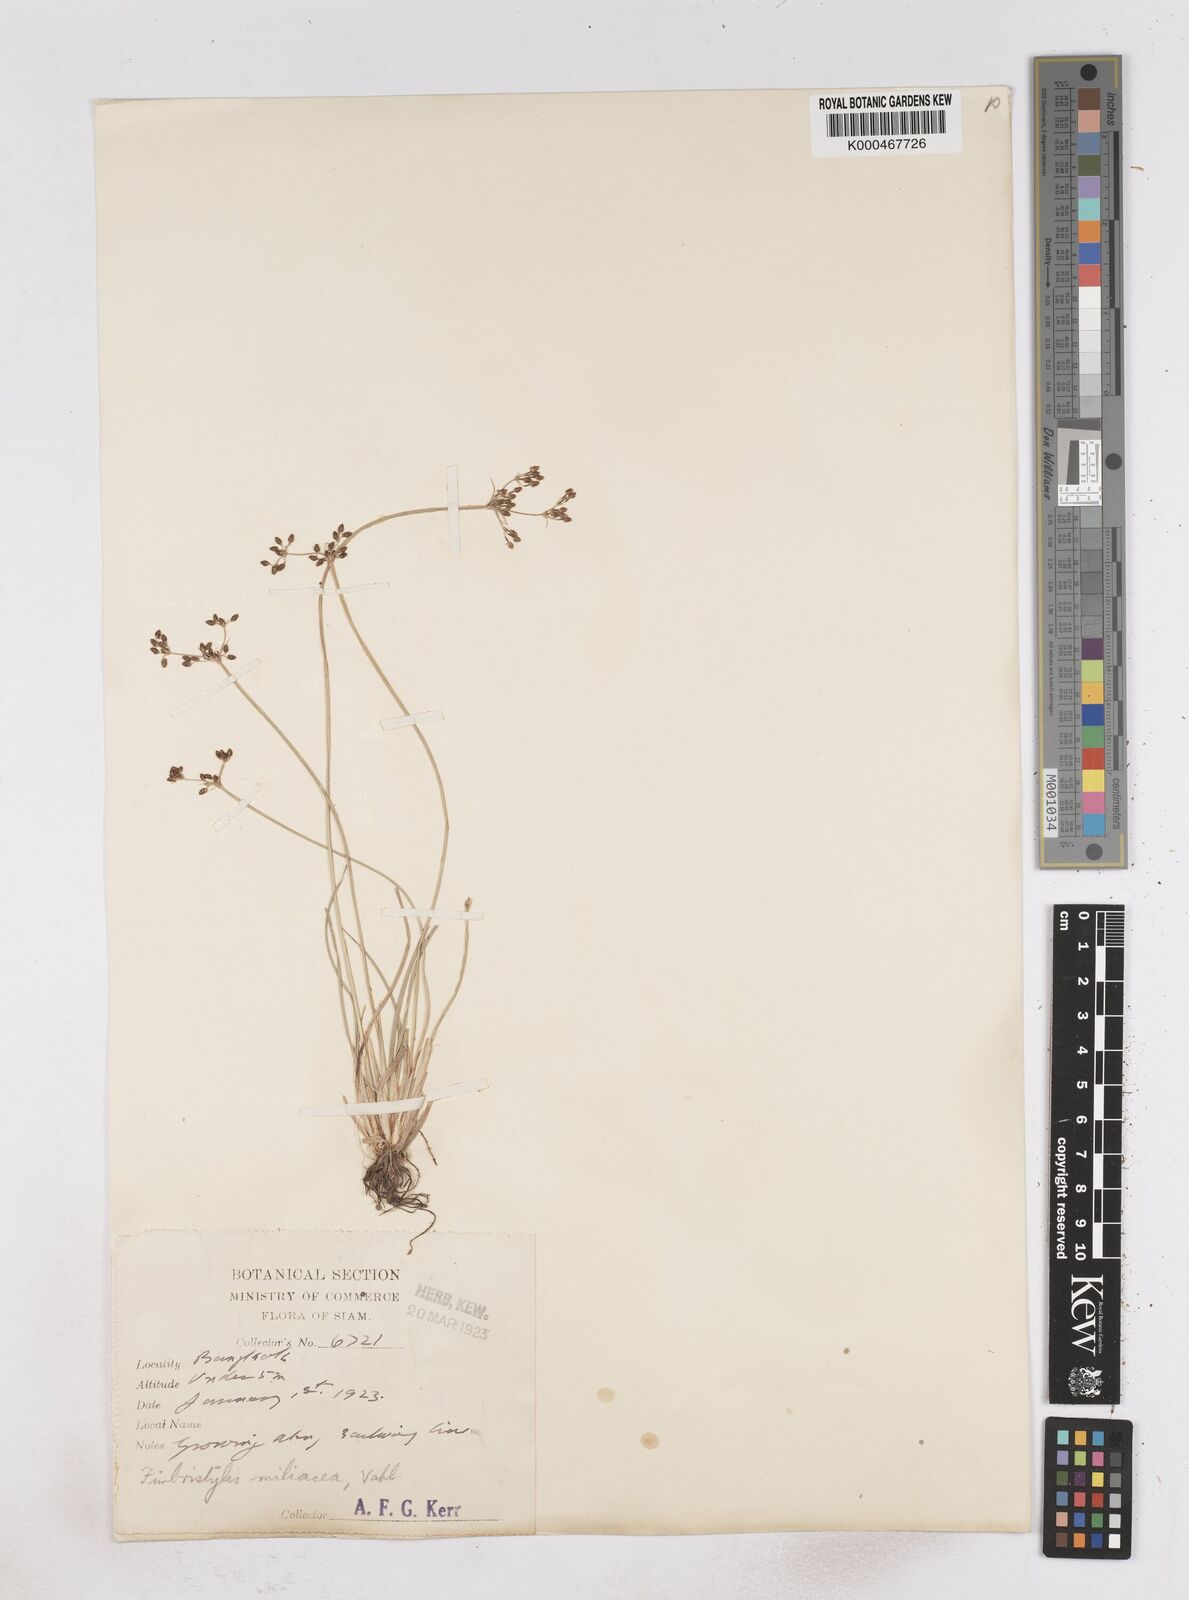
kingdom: Plantae
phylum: Tracheophyta
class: Liliopsida
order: Poales
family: Cyperaceae
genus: Fimbristylis
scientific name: Fimbristylis quinquangularis
